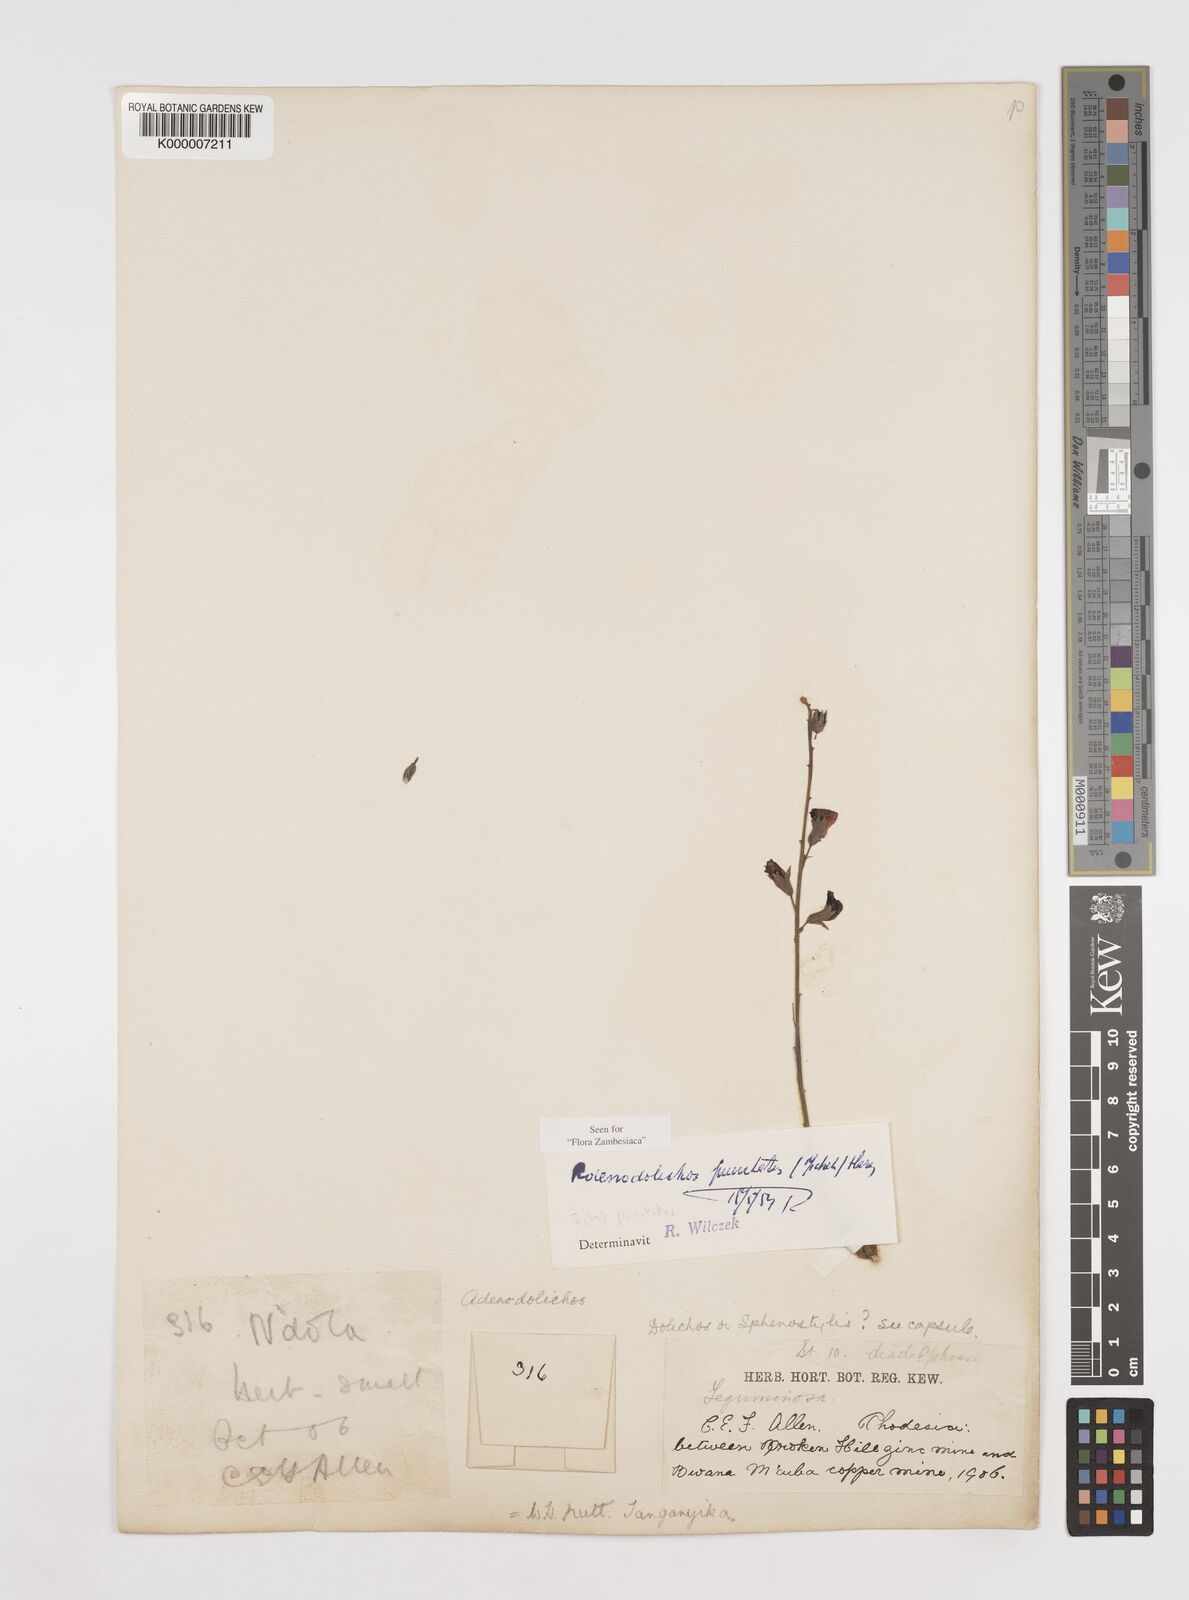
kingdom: Plantae
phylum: Tracheophyta
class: Magnoliopsida
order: Fabales
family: Fabaceae
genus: Adenodolichos
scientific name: Adenodolichos punctatus
